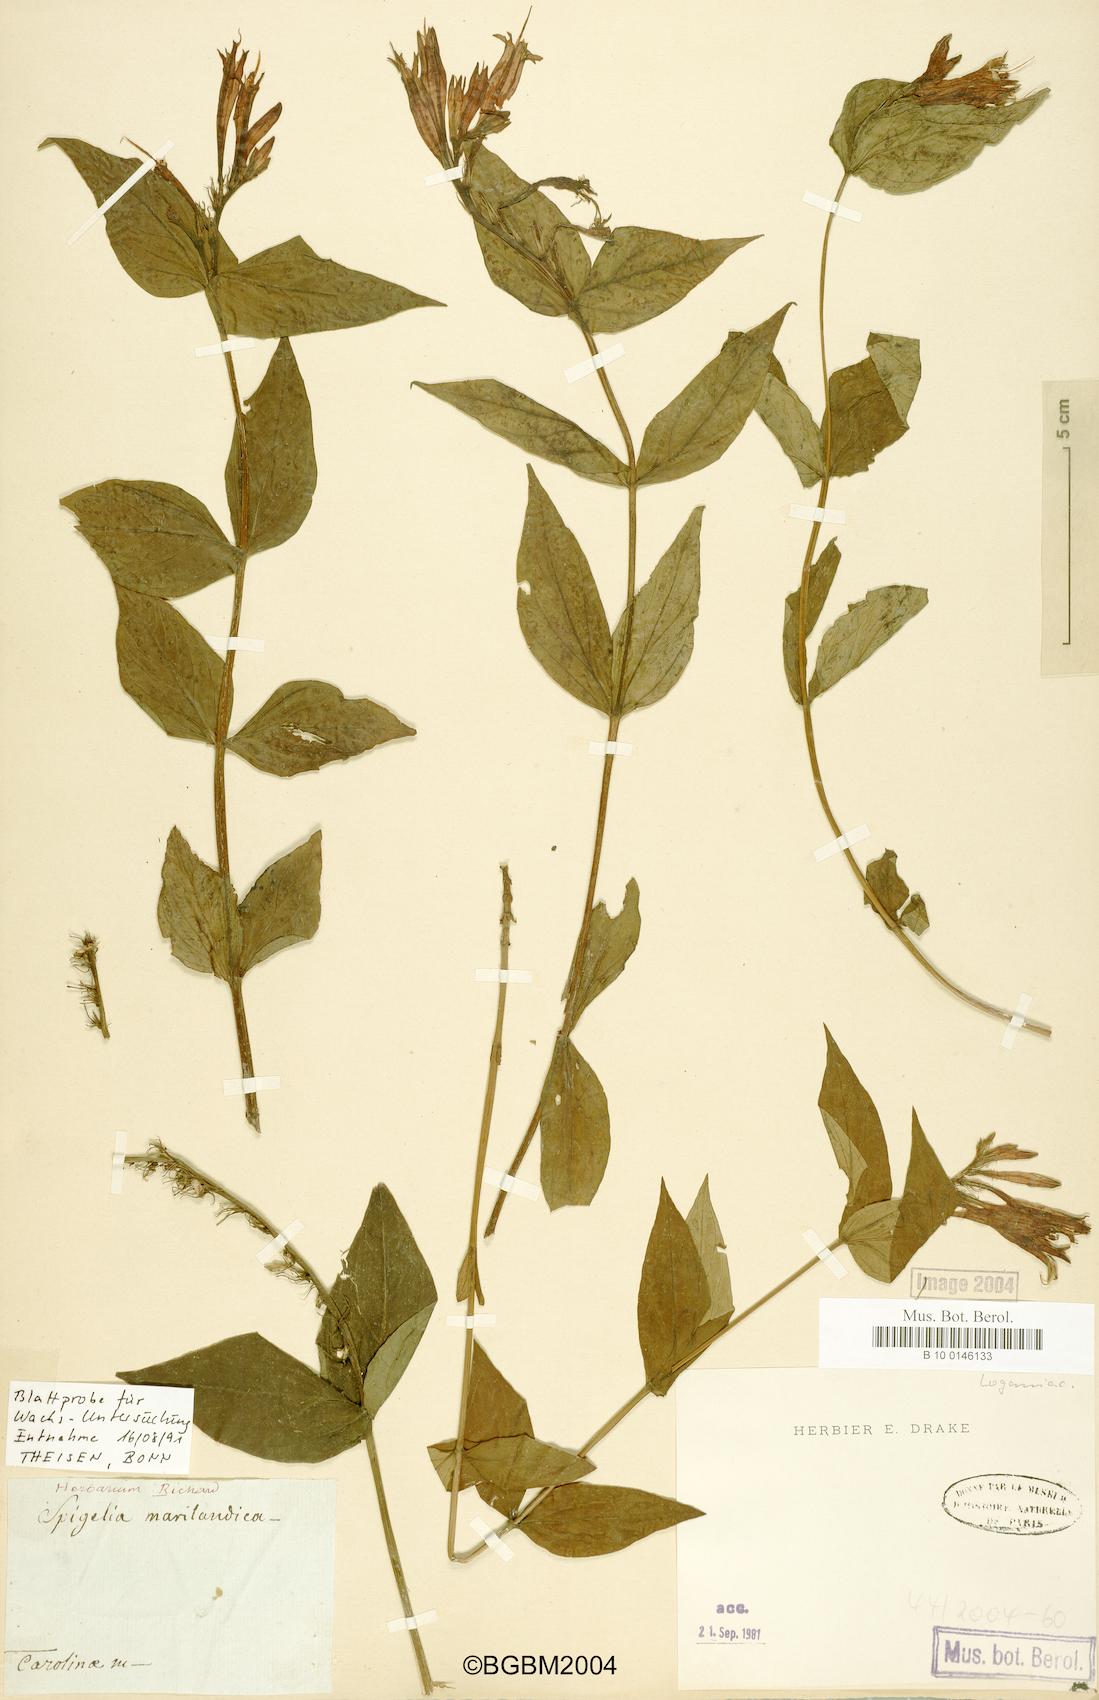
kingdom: Plantae
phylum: Tracheophyta
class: Magnoliopsida
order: Gentianales
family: Loganiaceae
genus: Spigelia
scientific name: Spigelia marilandica
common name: Indian-pink
